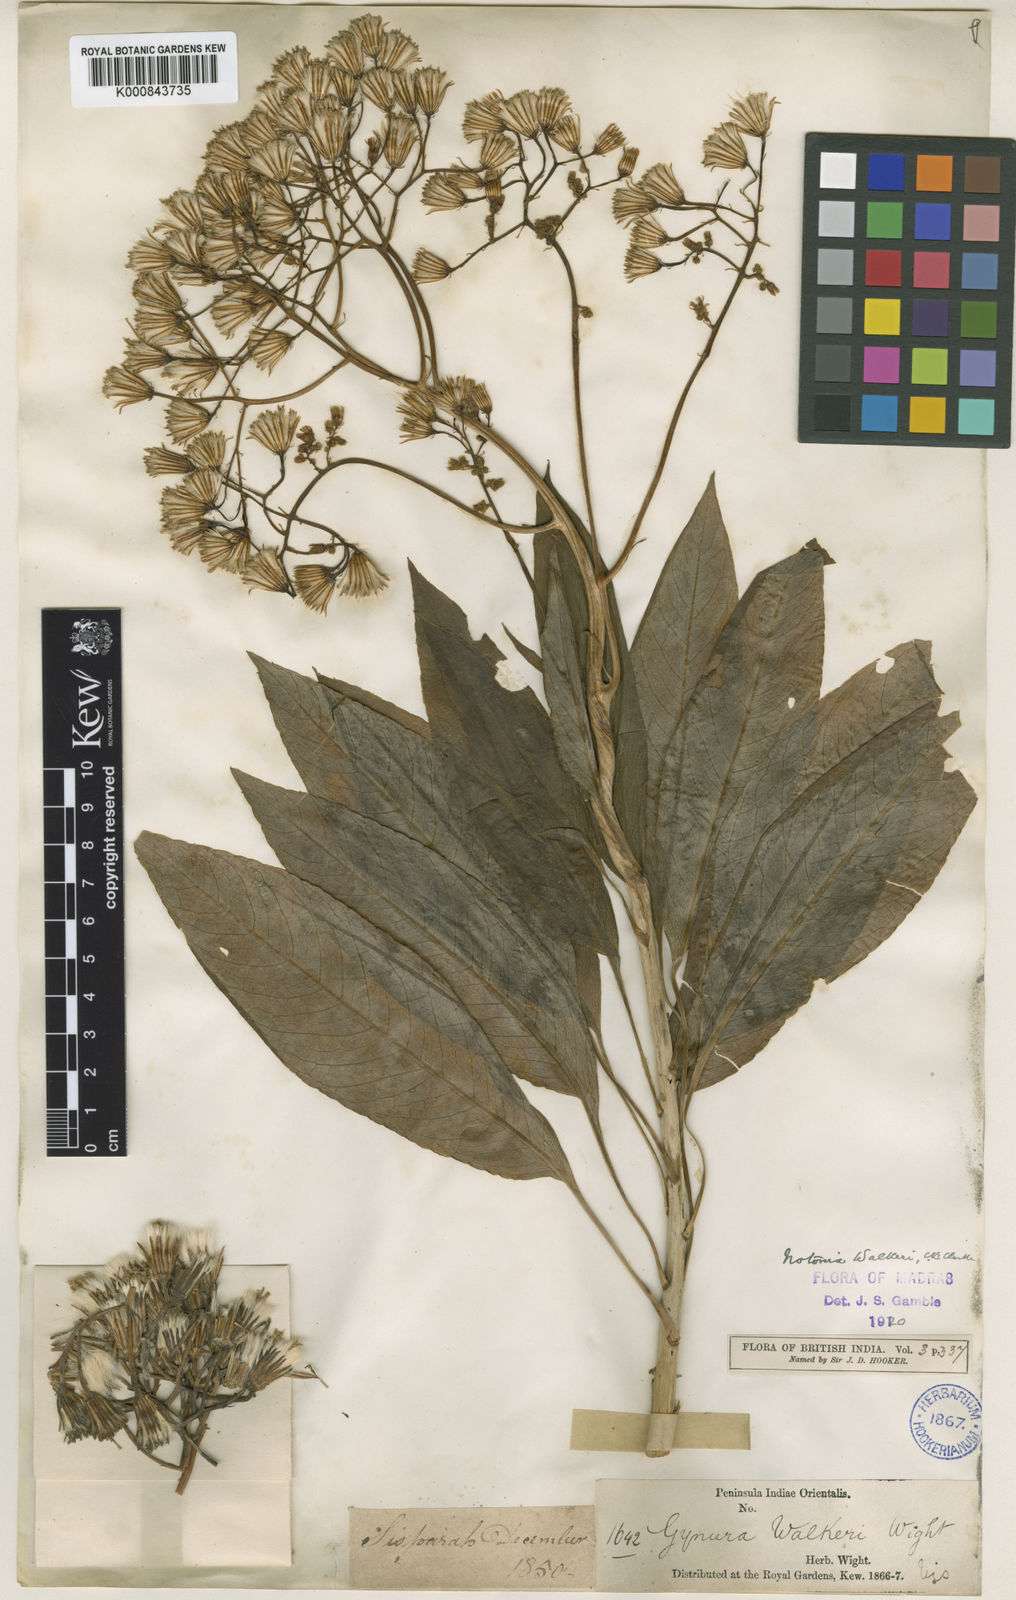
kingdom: Plantae
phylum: Tracheophyta
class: Magnoliopsida
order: Asterales
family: Asteraceae
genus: Kleinia
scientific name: Kleinia
